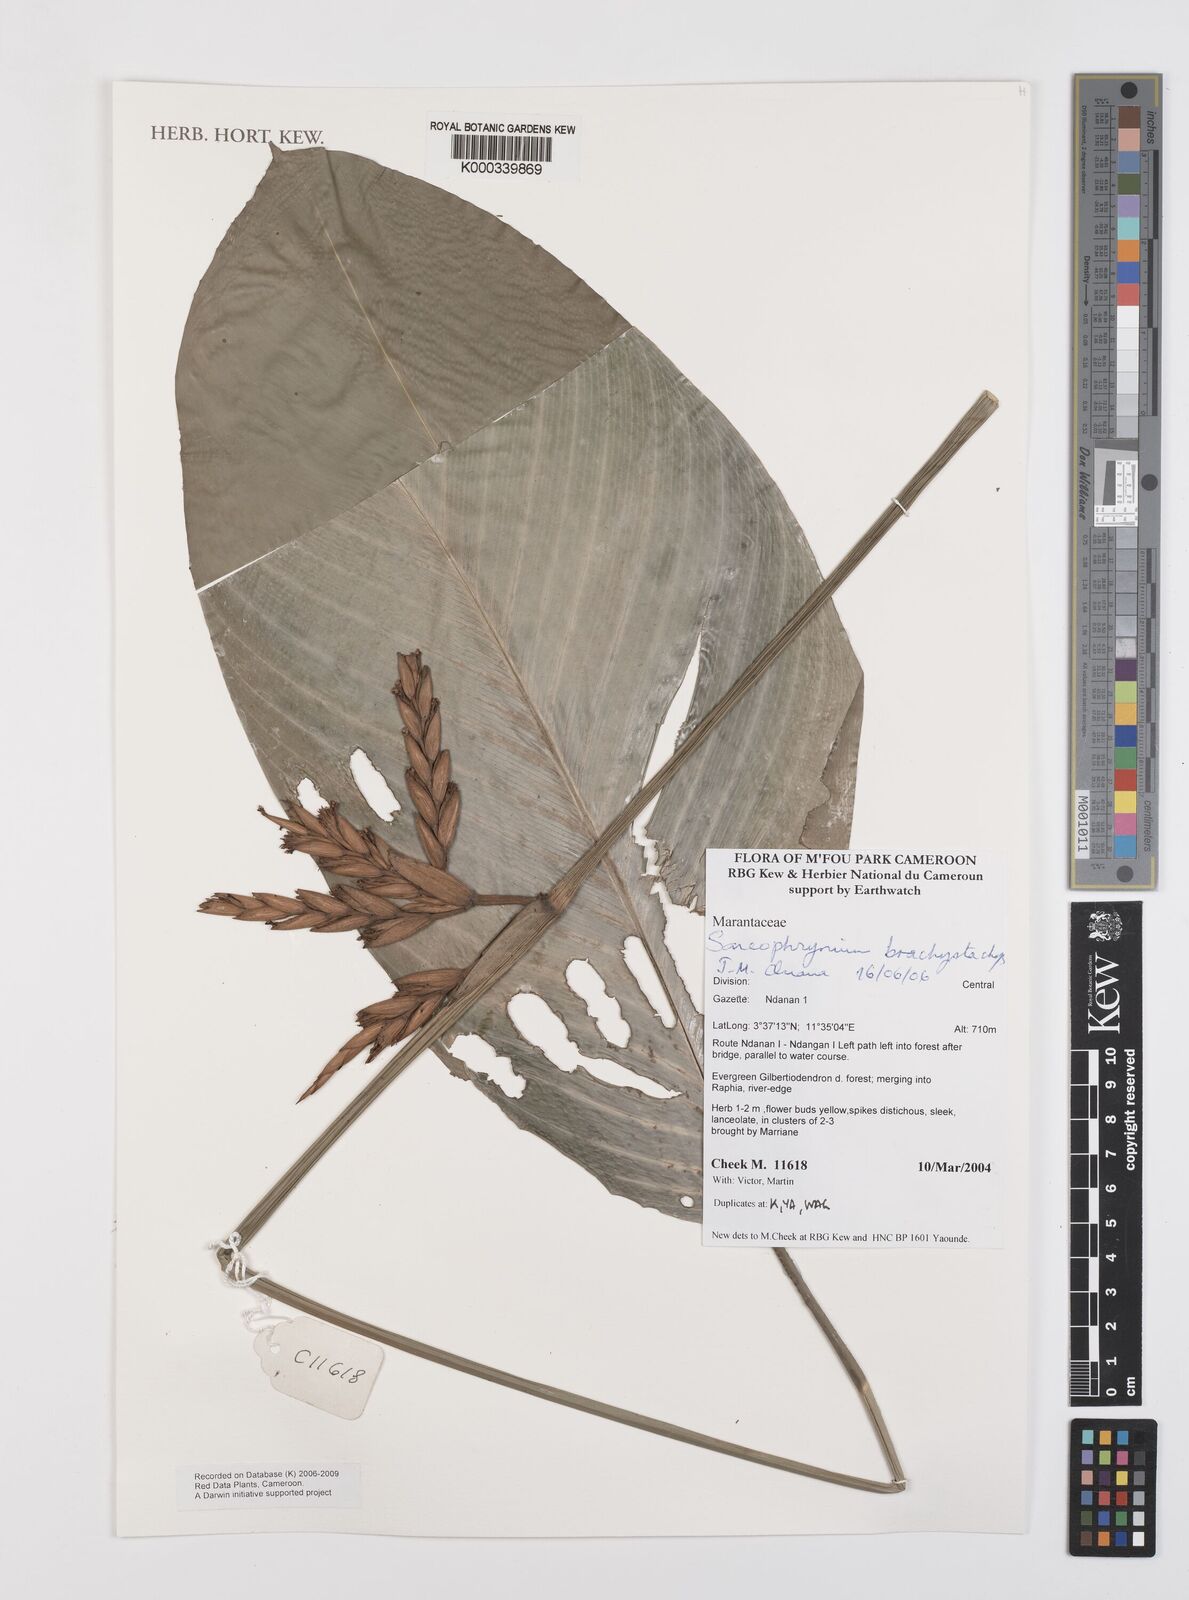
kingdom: Plantae
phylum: Tracheophyta
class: Liliopsida
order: Zingiberales
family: Marantaceae
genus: Sarcophrynium
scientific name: Sarcophrynium
